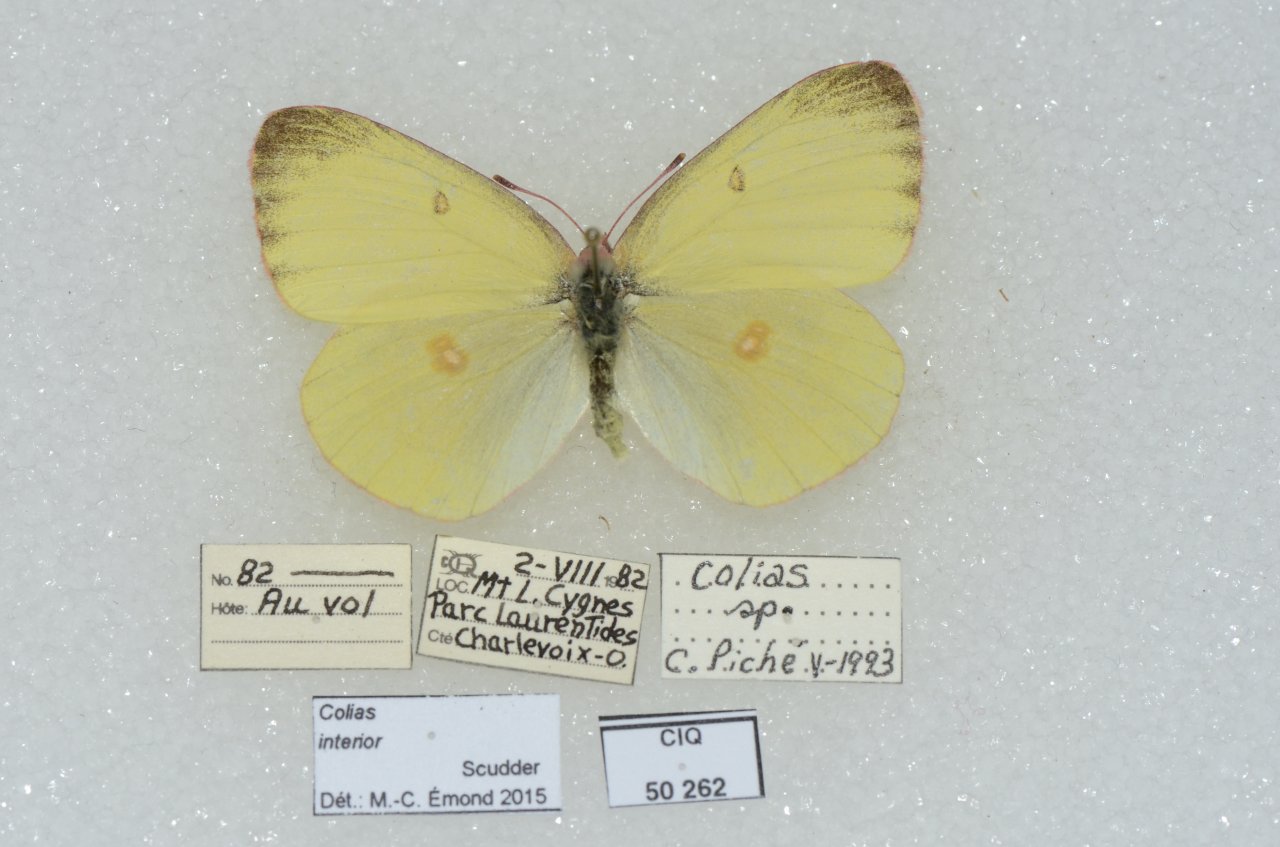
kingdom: Animalia
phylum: Arthropoda
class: Insecta
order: Lepidoptera
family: Pieridae
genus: Colias
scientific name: Colias philodice
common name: Clouded Sulphur
